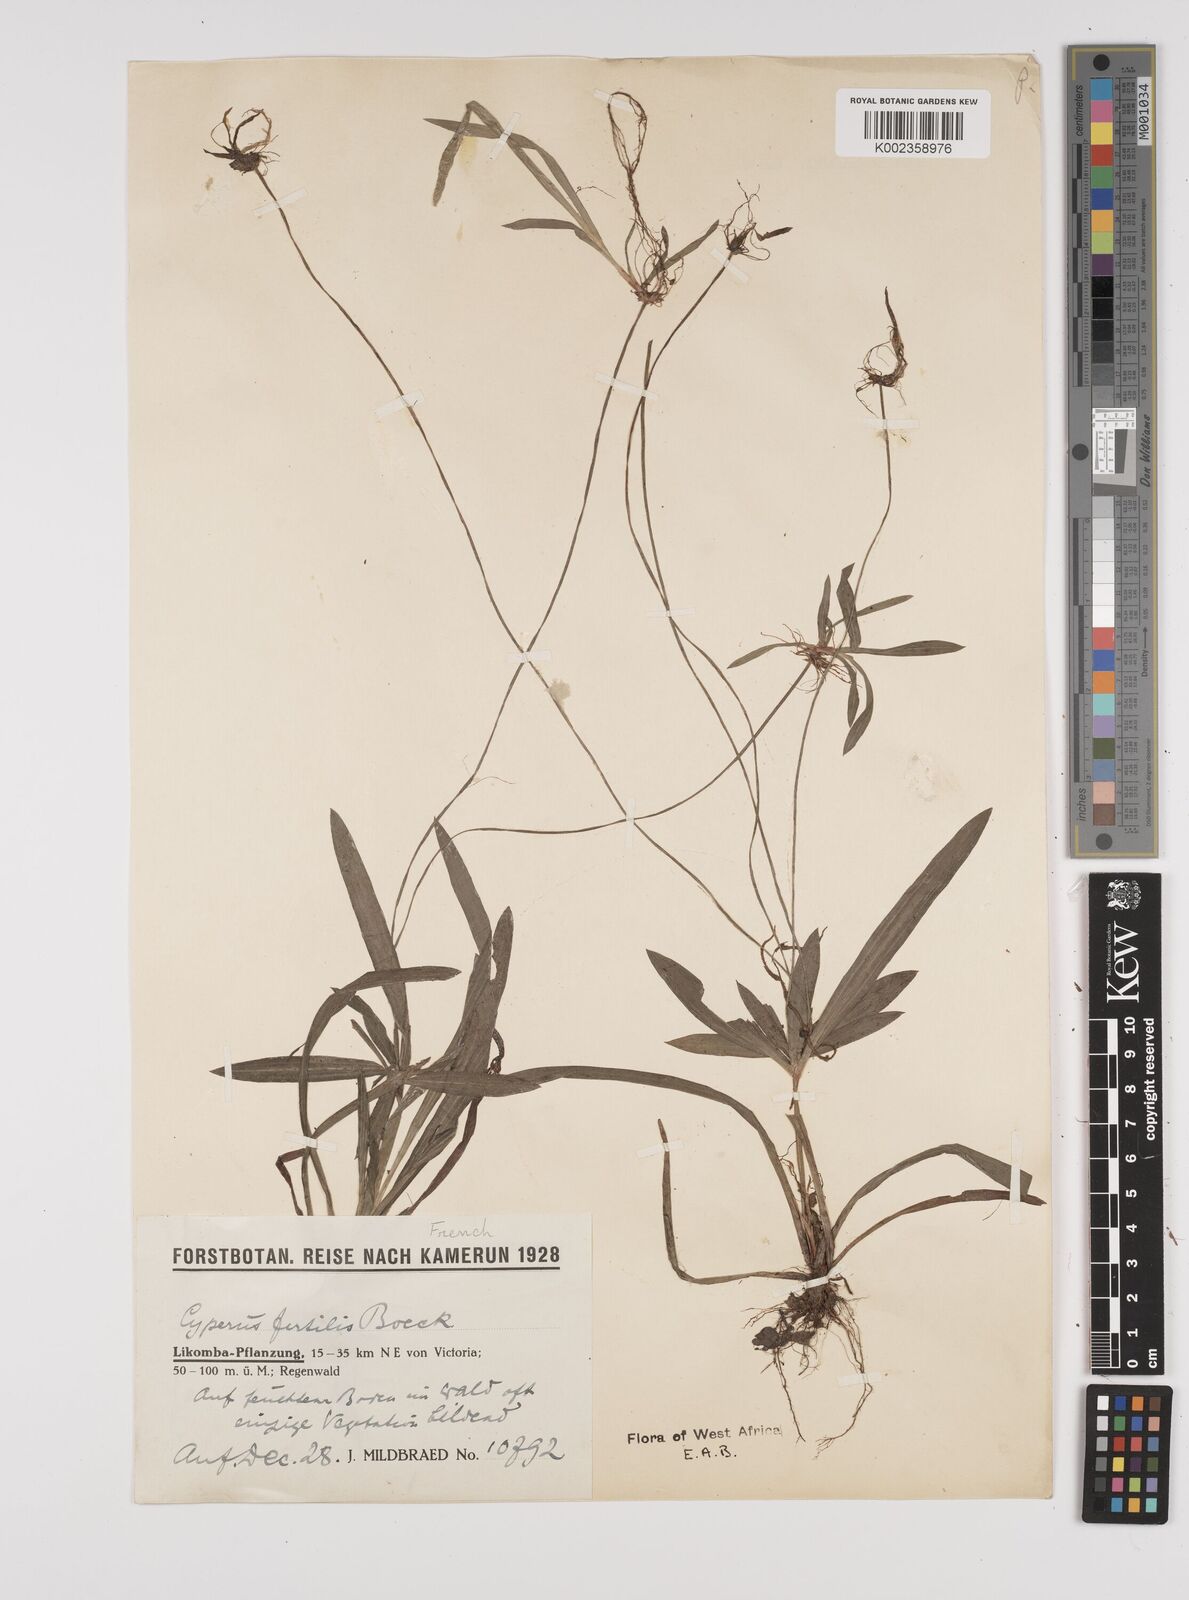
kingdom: Plantae
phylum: Tracheophyta
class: Liliopsida
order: Poales
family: Cyperaceae
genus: Cyperus
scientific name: Cyperus fertilis
